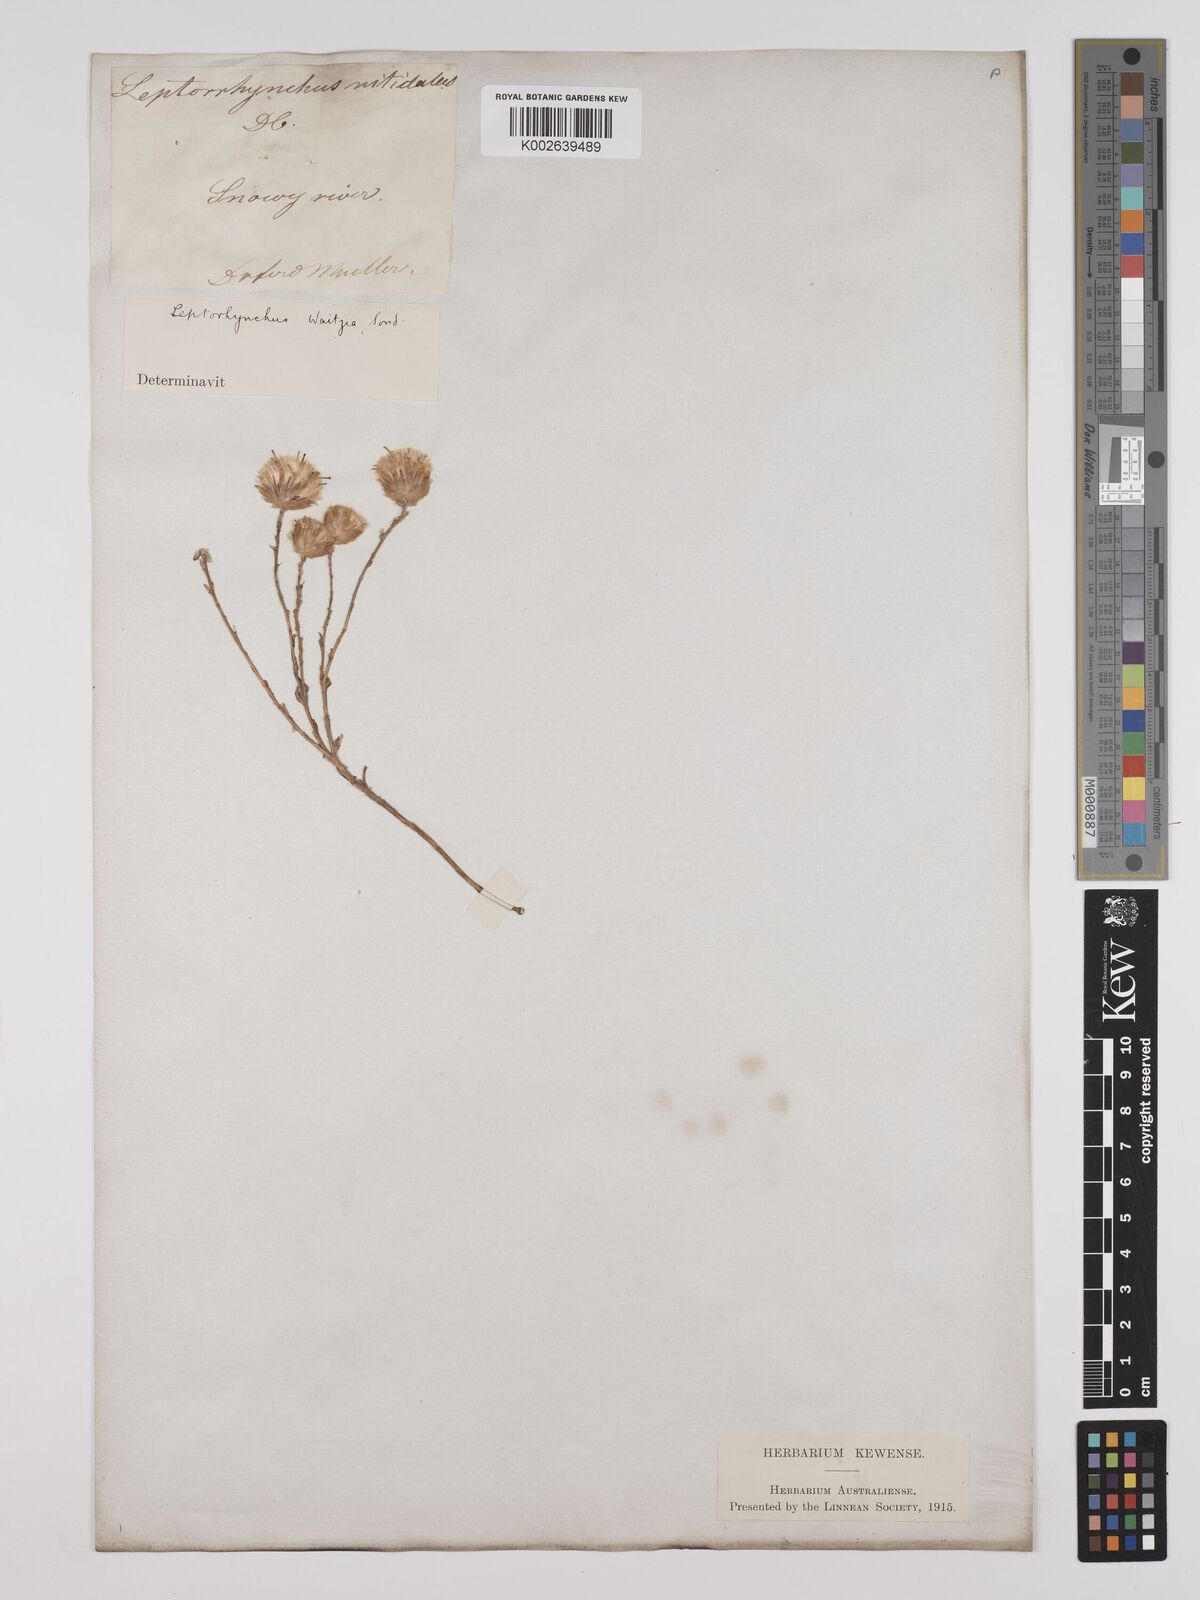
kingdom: Plantae
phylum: Tracheophyta
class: Magnoliopsida
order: Asterales
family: Asteraceae
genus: Leptorhynchos
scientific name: Leptorhynchos waitzia
